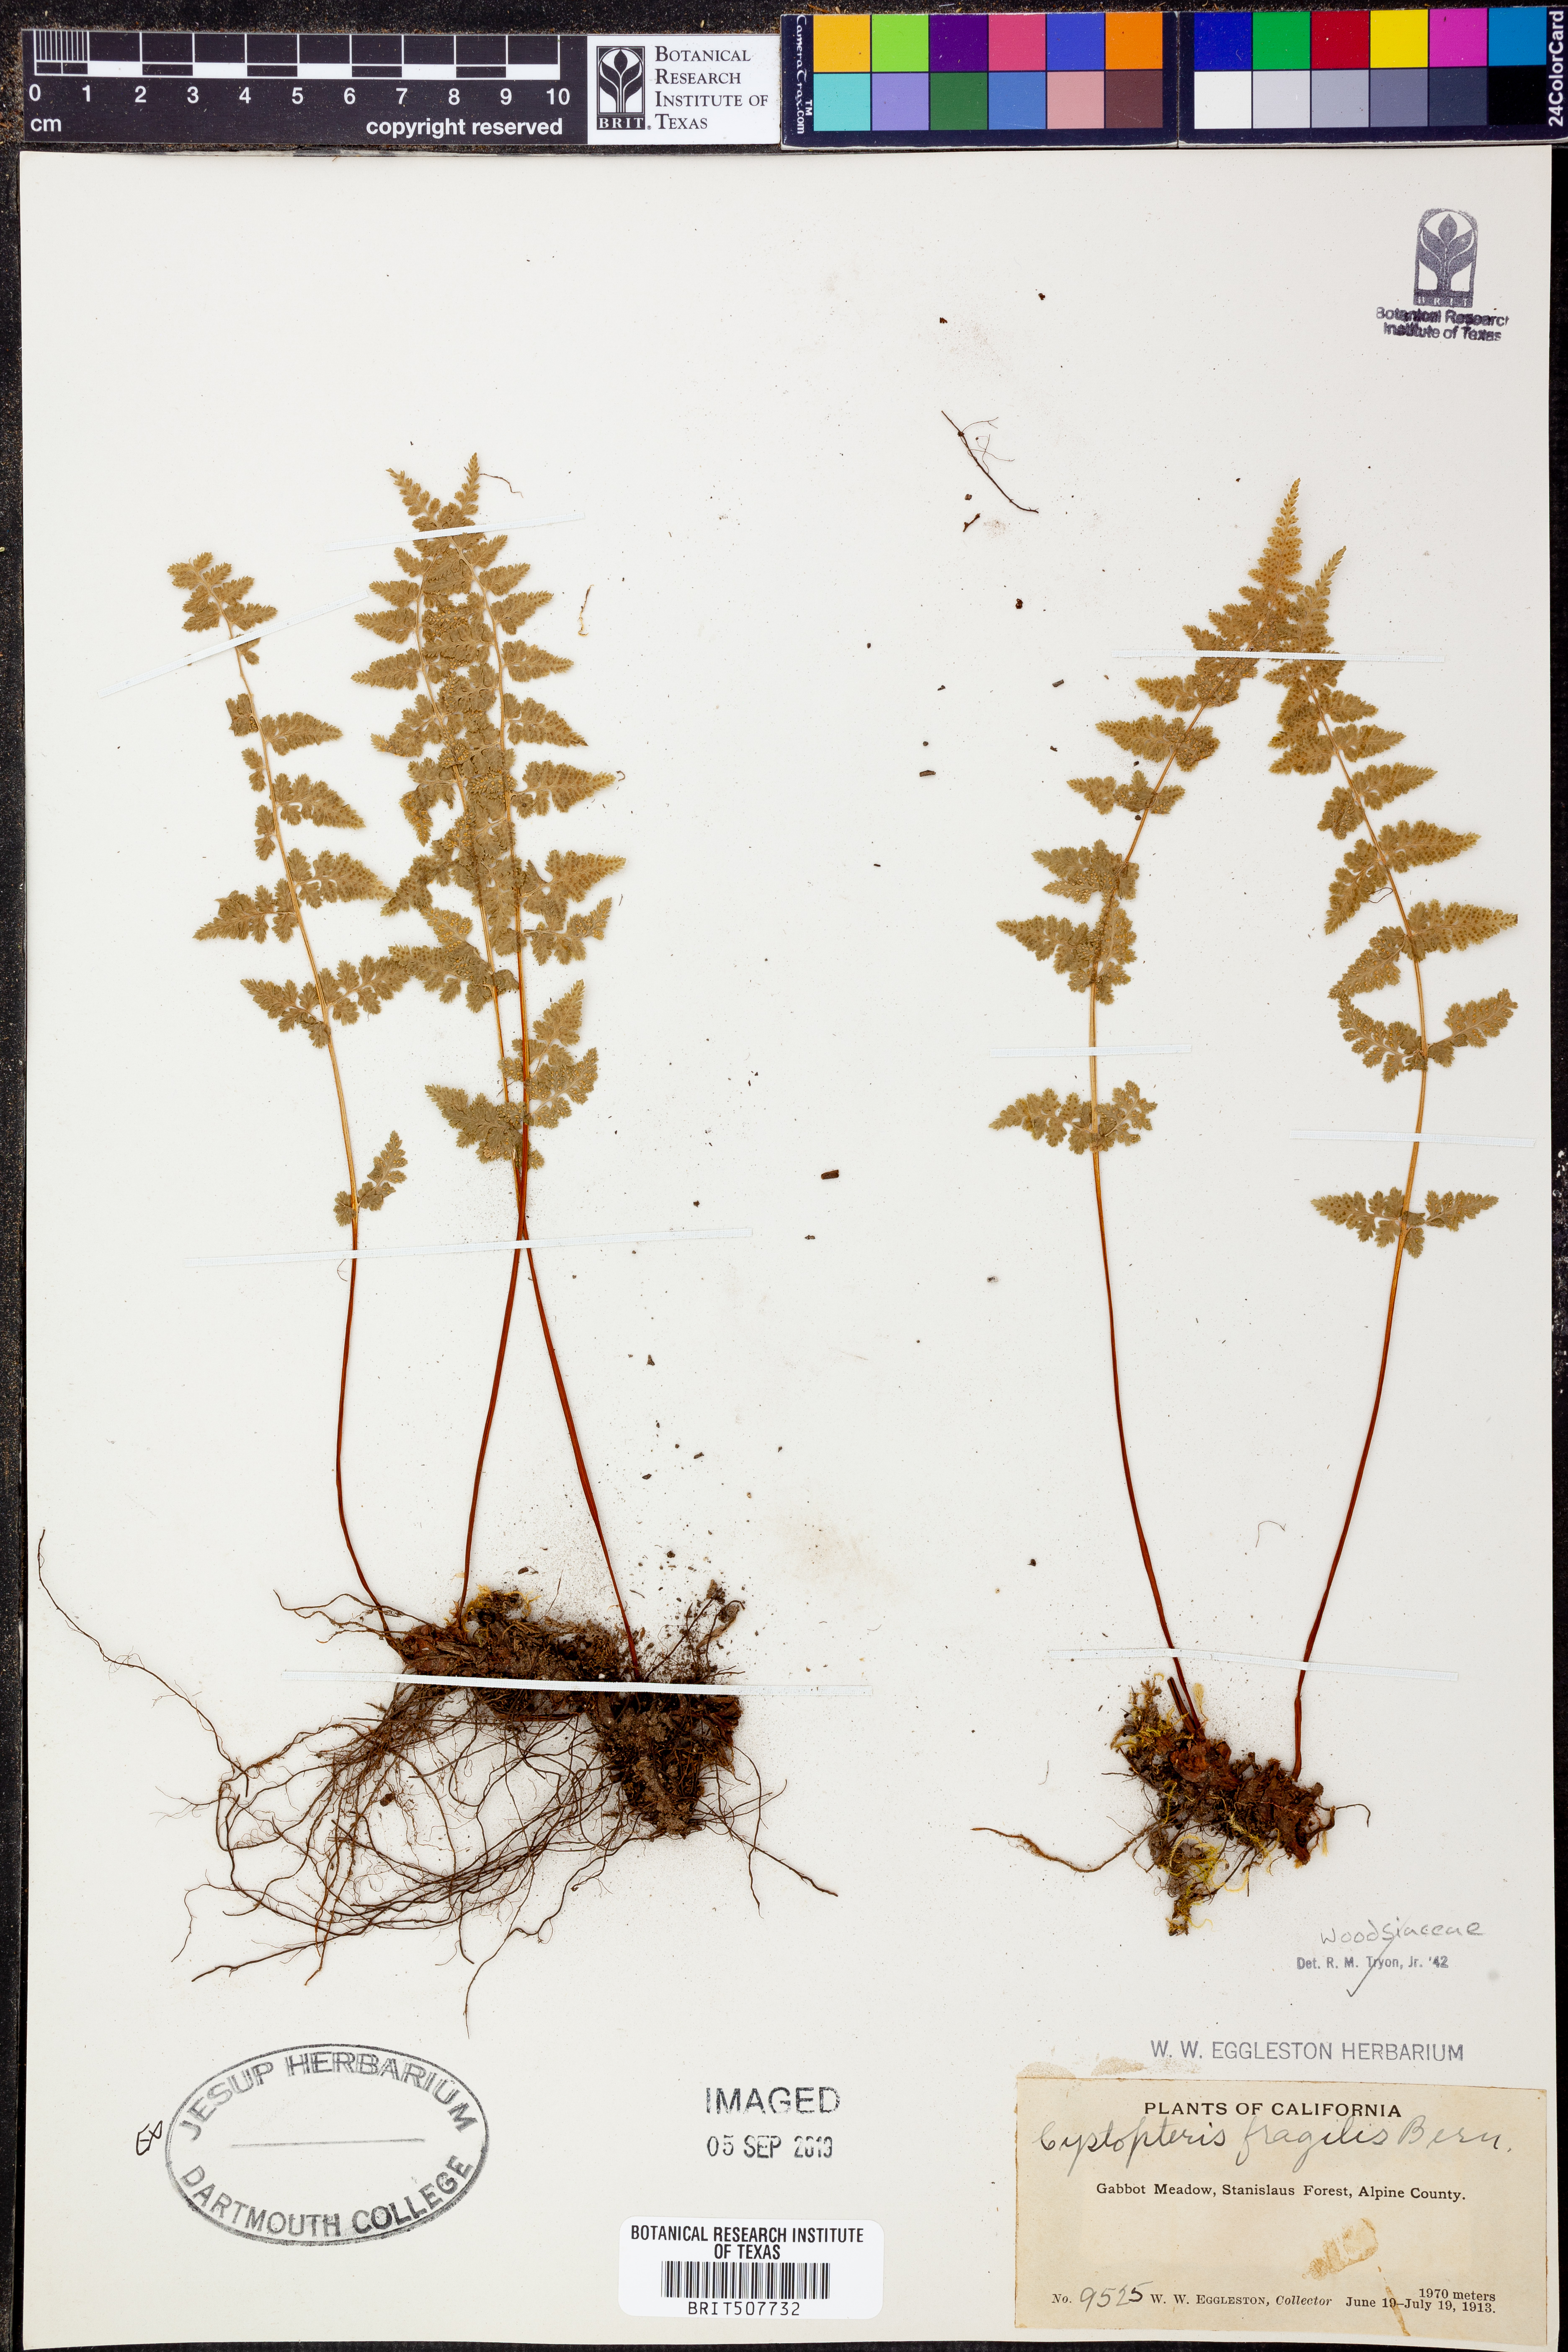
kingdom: Plantae
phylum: Tracheophyta
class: Polypodiopsida
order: Polypodiales
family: Cystopteridaceae
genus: Cystopteris
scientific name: Cystopteris fragilis
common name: Brittle bladder fern
